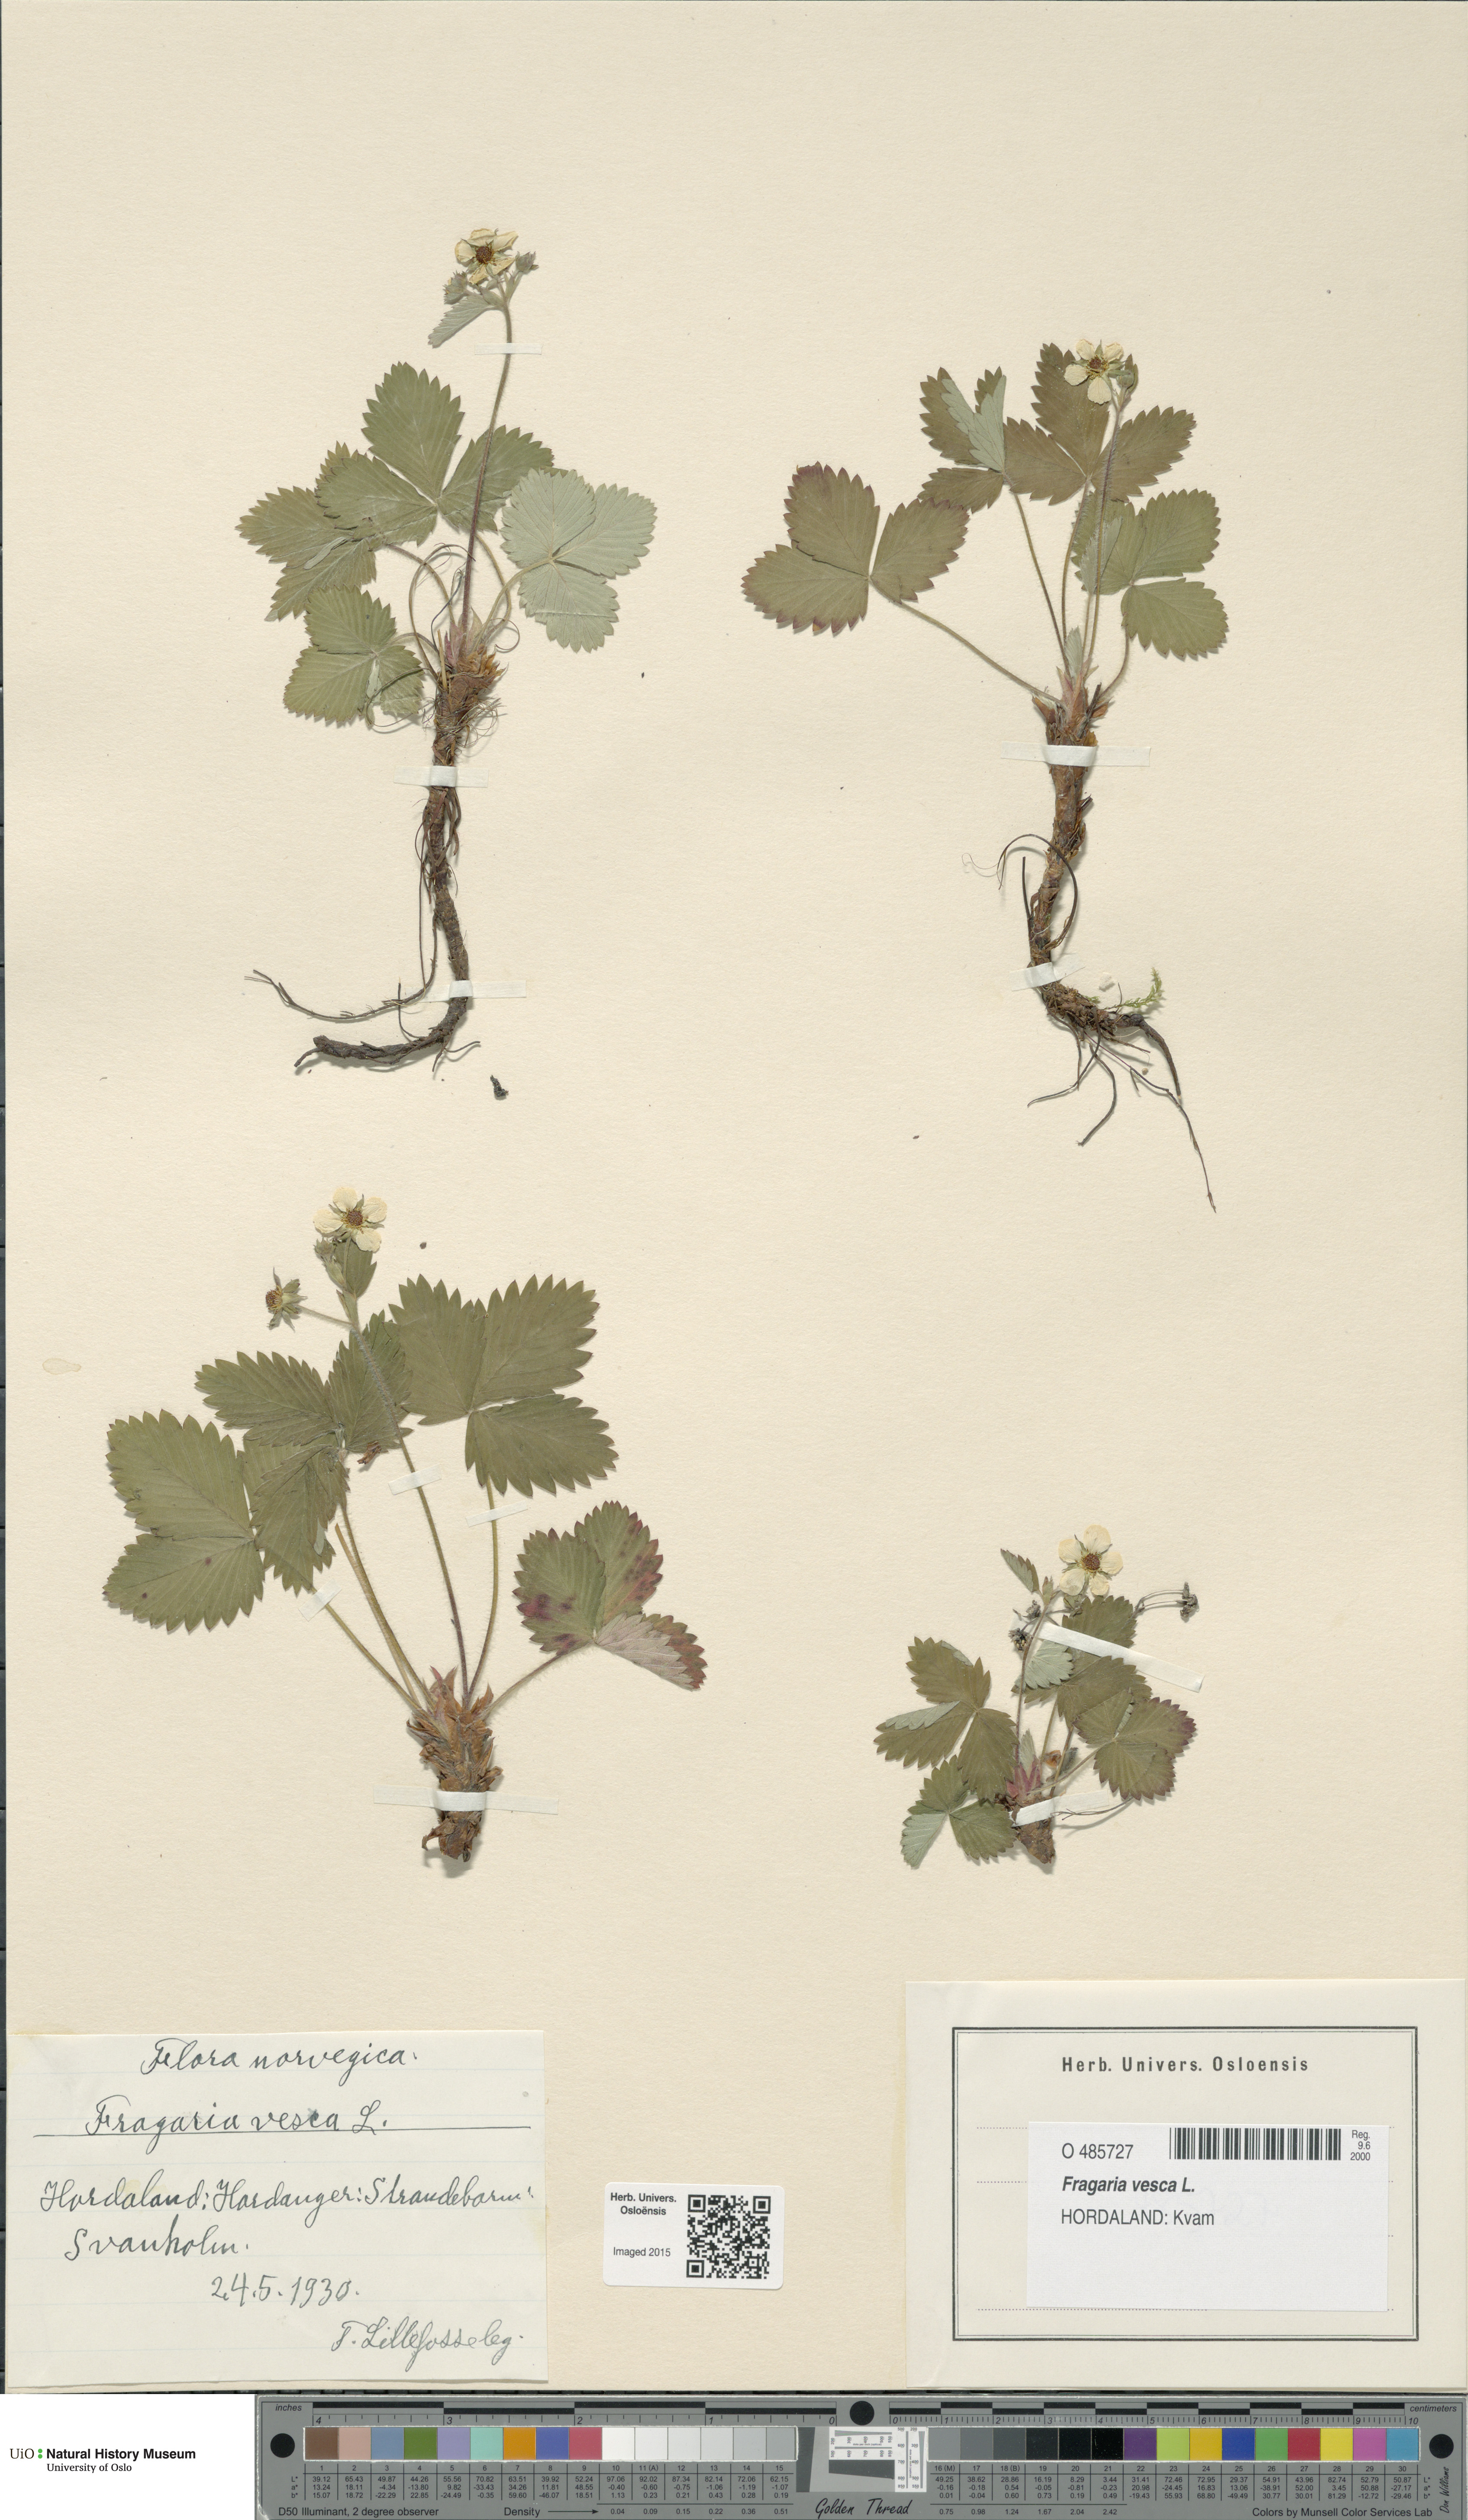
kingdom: Plantae
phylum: Tracheophyta
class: Magnoliopsida
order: Rosales
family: Rosaceae
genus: Fragaria
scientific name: Fragaria vesca
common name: Wild strawberry
